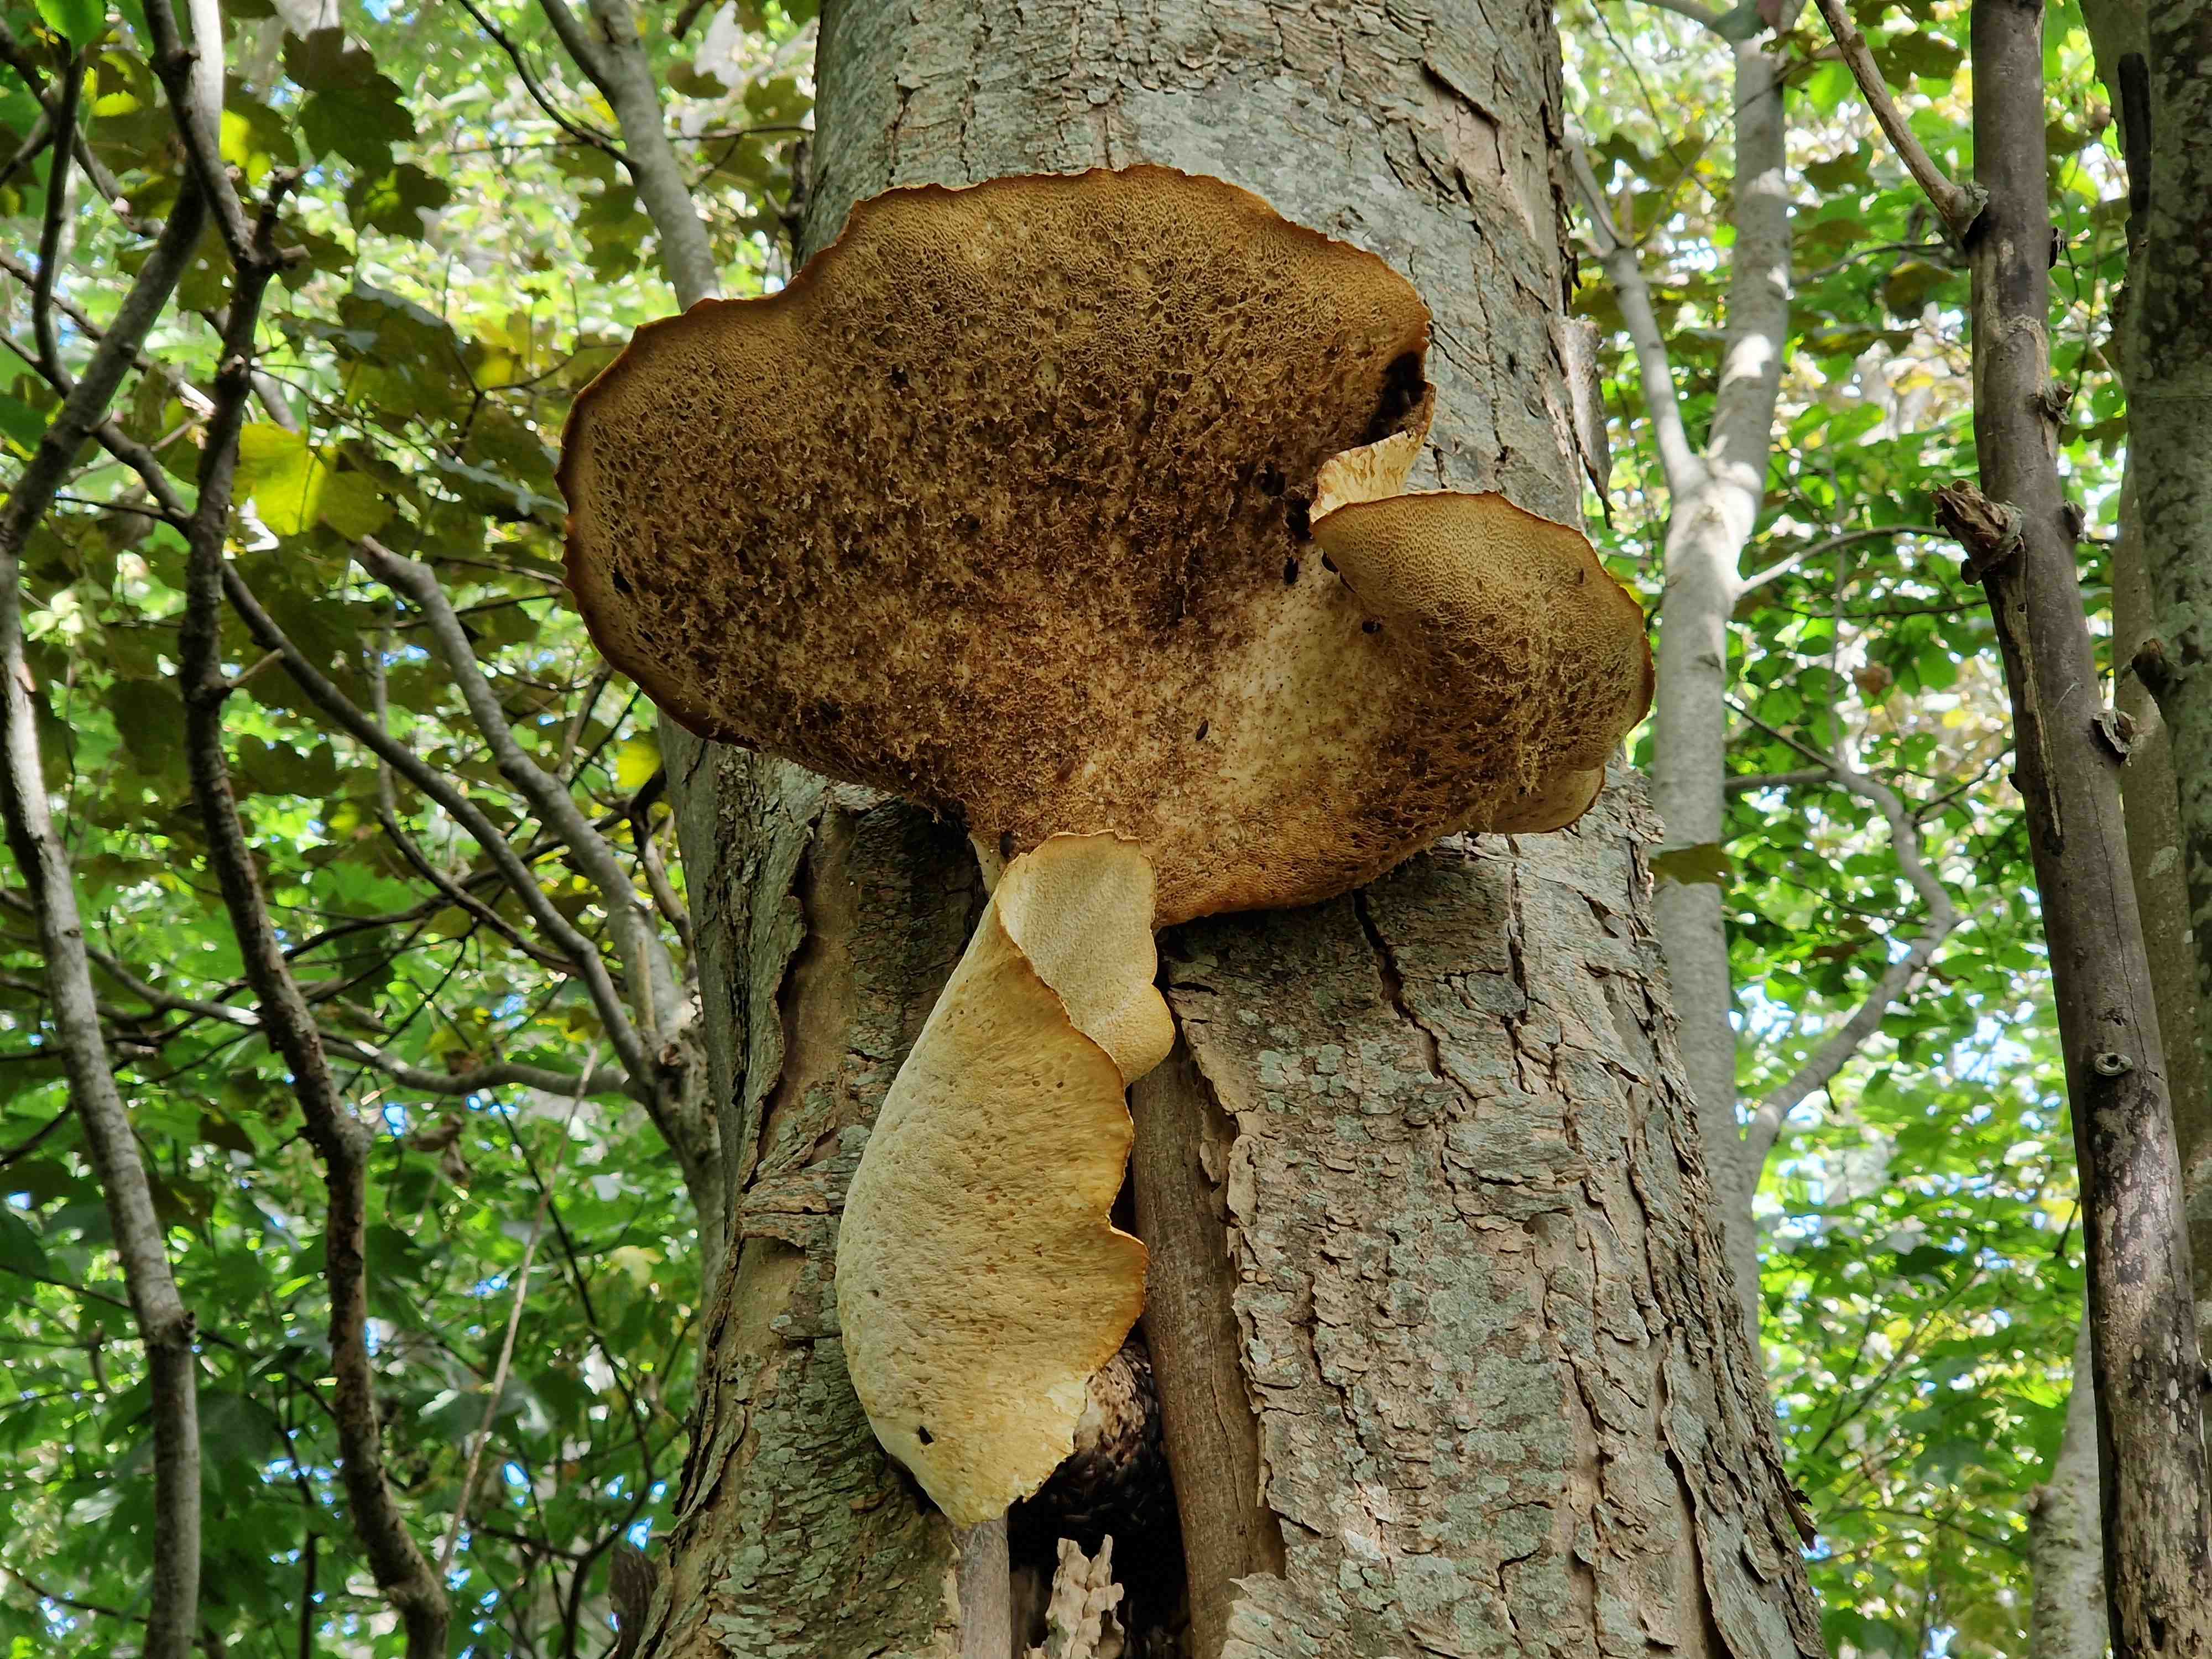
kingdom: Fungi
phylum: Basidiomycota
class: Agaricomycetes
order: Polyporales
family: Polyporaceae
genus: Cerioporus
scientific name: Cerioporus squamosus
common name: skællet stilkporesvamp
